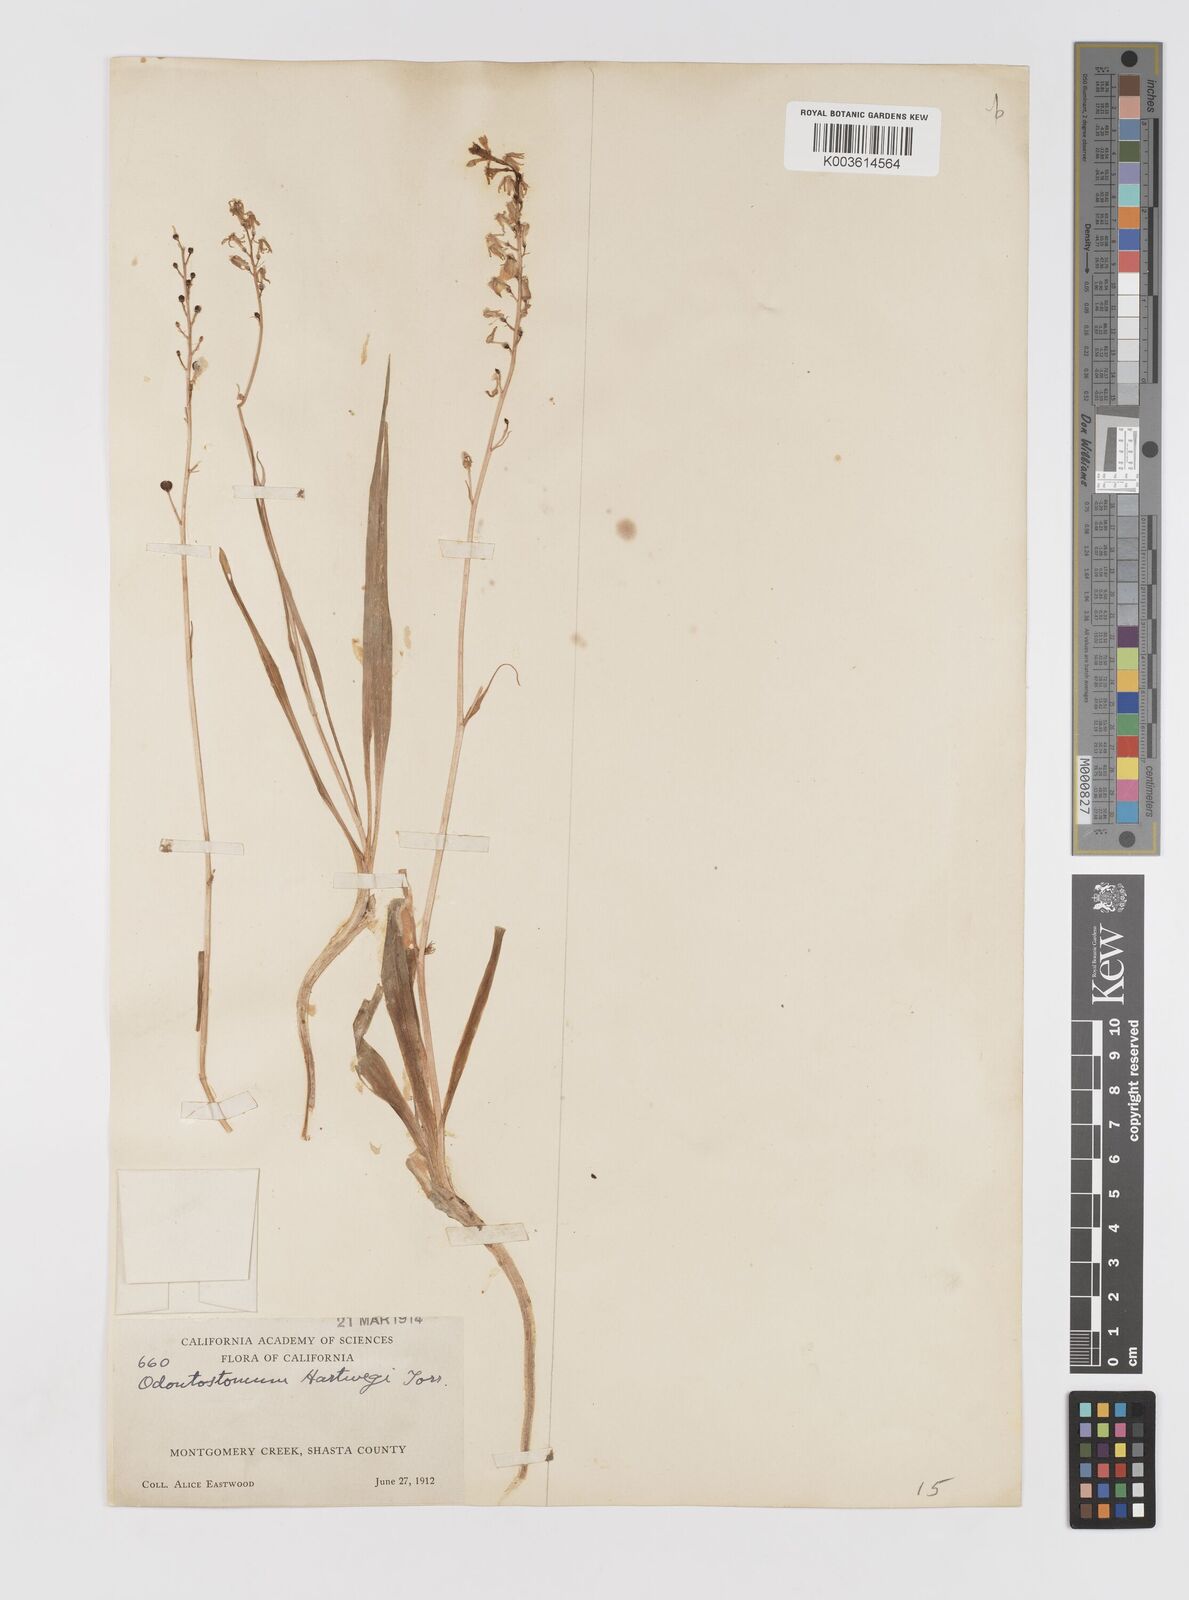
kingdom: Plantae
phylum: Tracheophyta
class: Liliopsida
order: Asparagales
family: Tecophilaeaceae
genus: Odontostomum
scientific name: Odontostomum hartwegii
